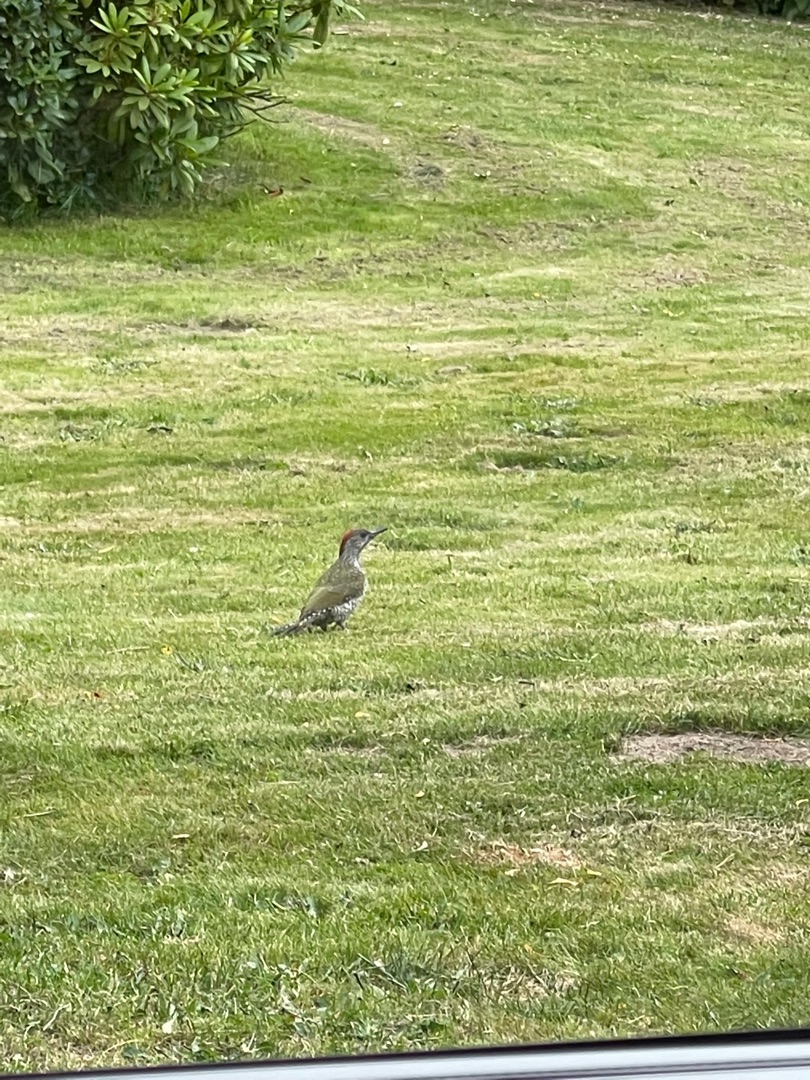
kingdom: Animalia
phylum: Chordata
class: Aves
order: Piciformes
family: Picidae
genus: Picus
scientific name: Picus viridis
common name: Grønspætte
